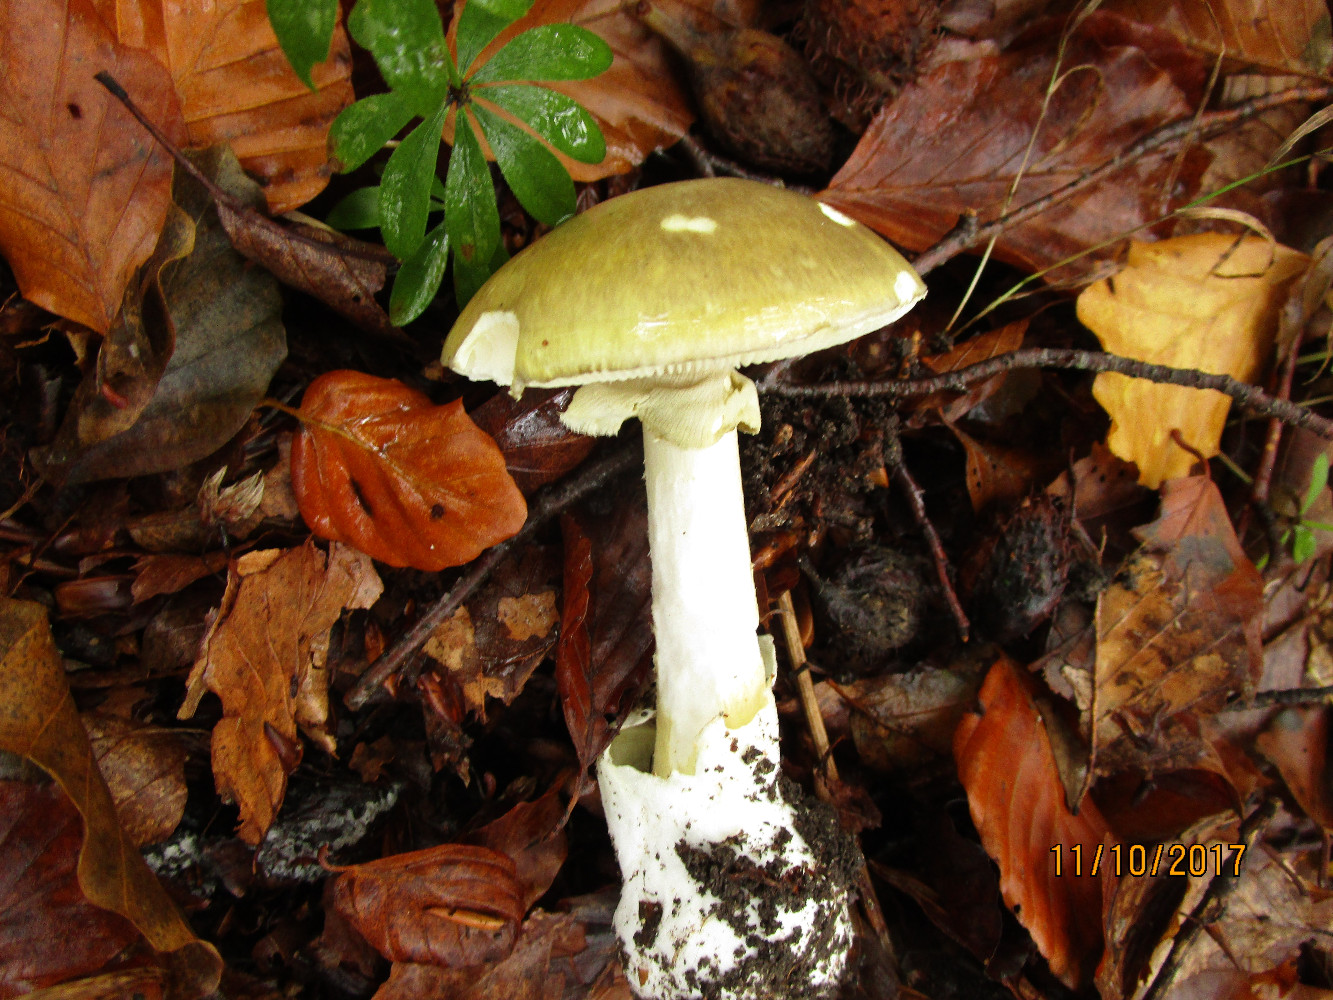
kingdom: Fungi
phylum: Basidiomycota
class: Agaricomycetes
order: Agaricales
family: Amanitaceae
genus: Amanita
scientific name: Amanita phalloides
